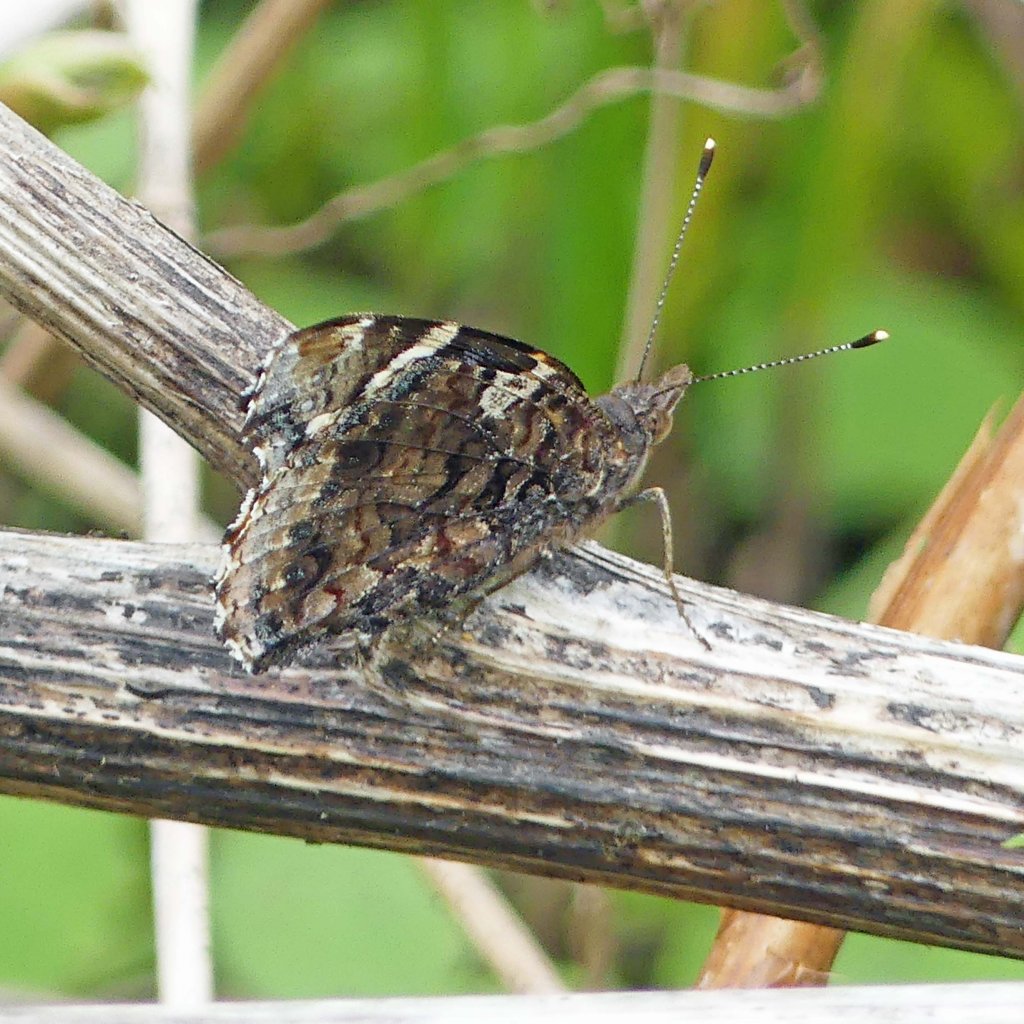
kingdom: Animalia
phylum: Arthropoda
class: Insecta
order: Lepidoptera
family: Nymphalidae
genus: Vanessa
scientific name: Vanessa atalanta
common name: Red Admiral
